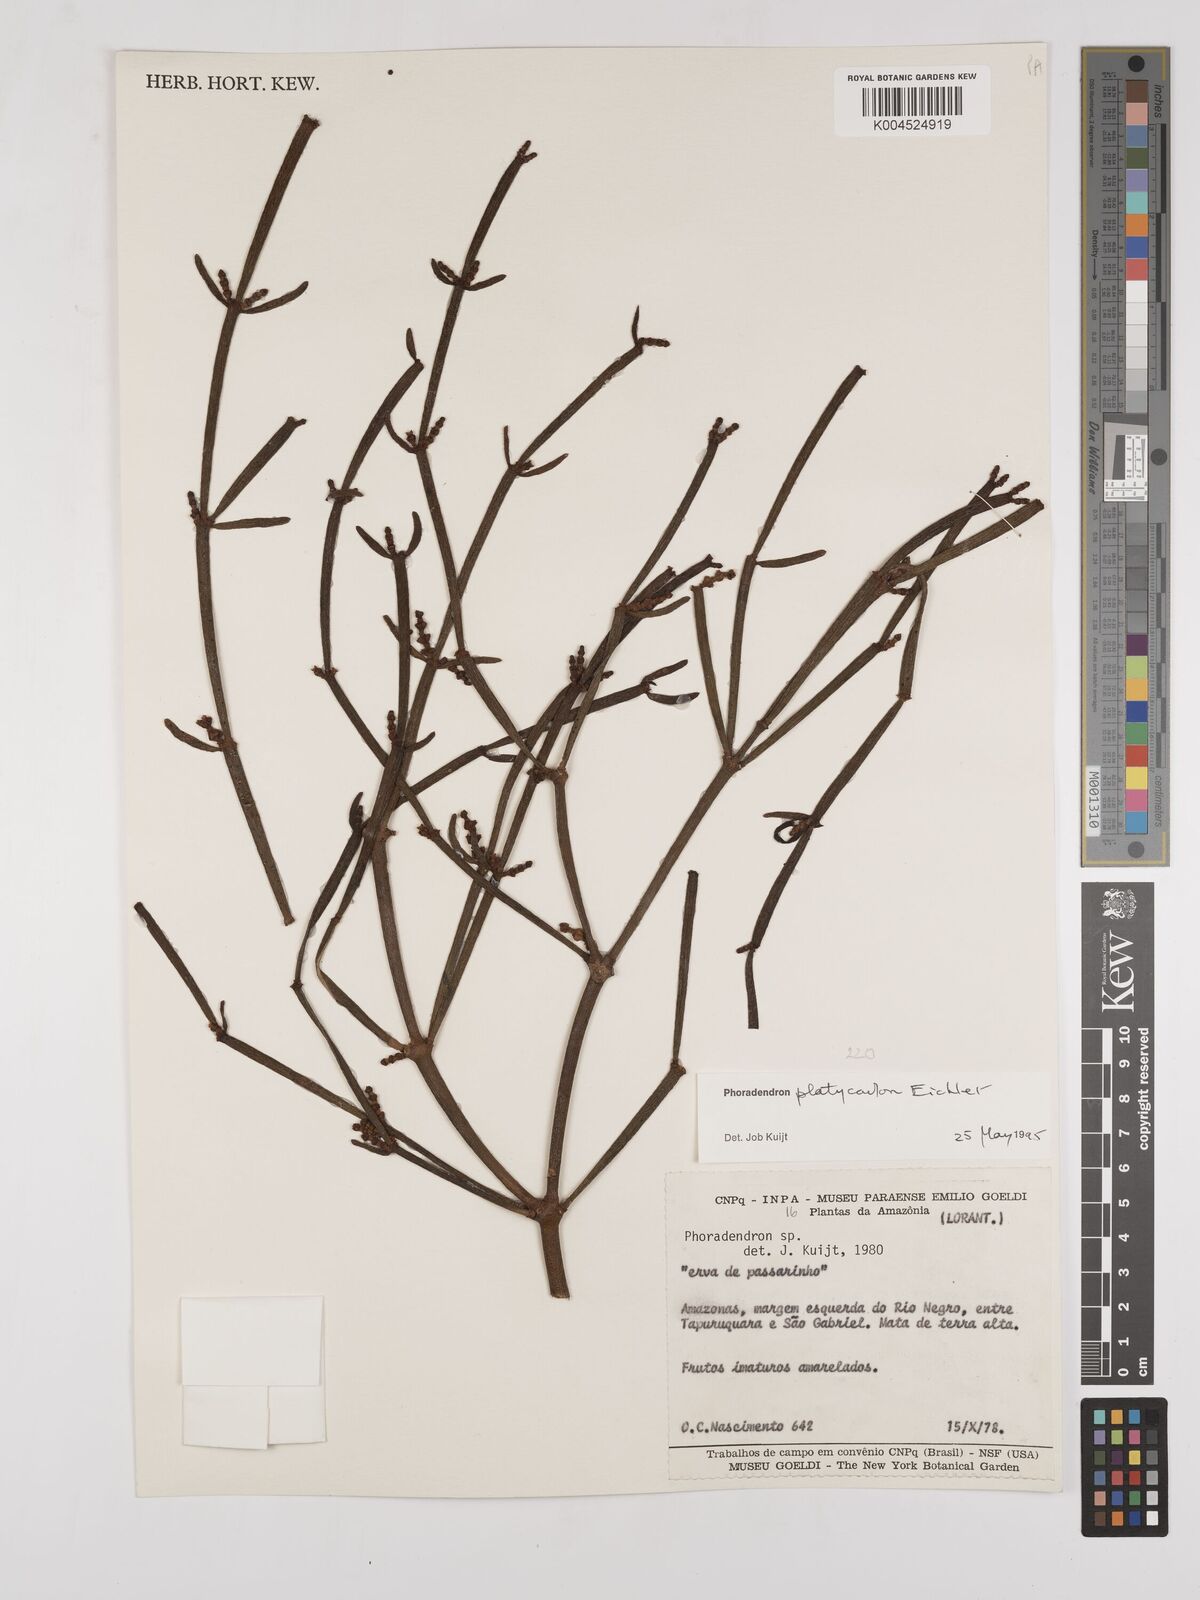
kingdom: Plantae
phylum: Tracheophyta
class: Magnoliopsida
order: Santalales
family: Viscaceae
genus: Phoradendron
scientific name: Phoradendron planiphyllum
